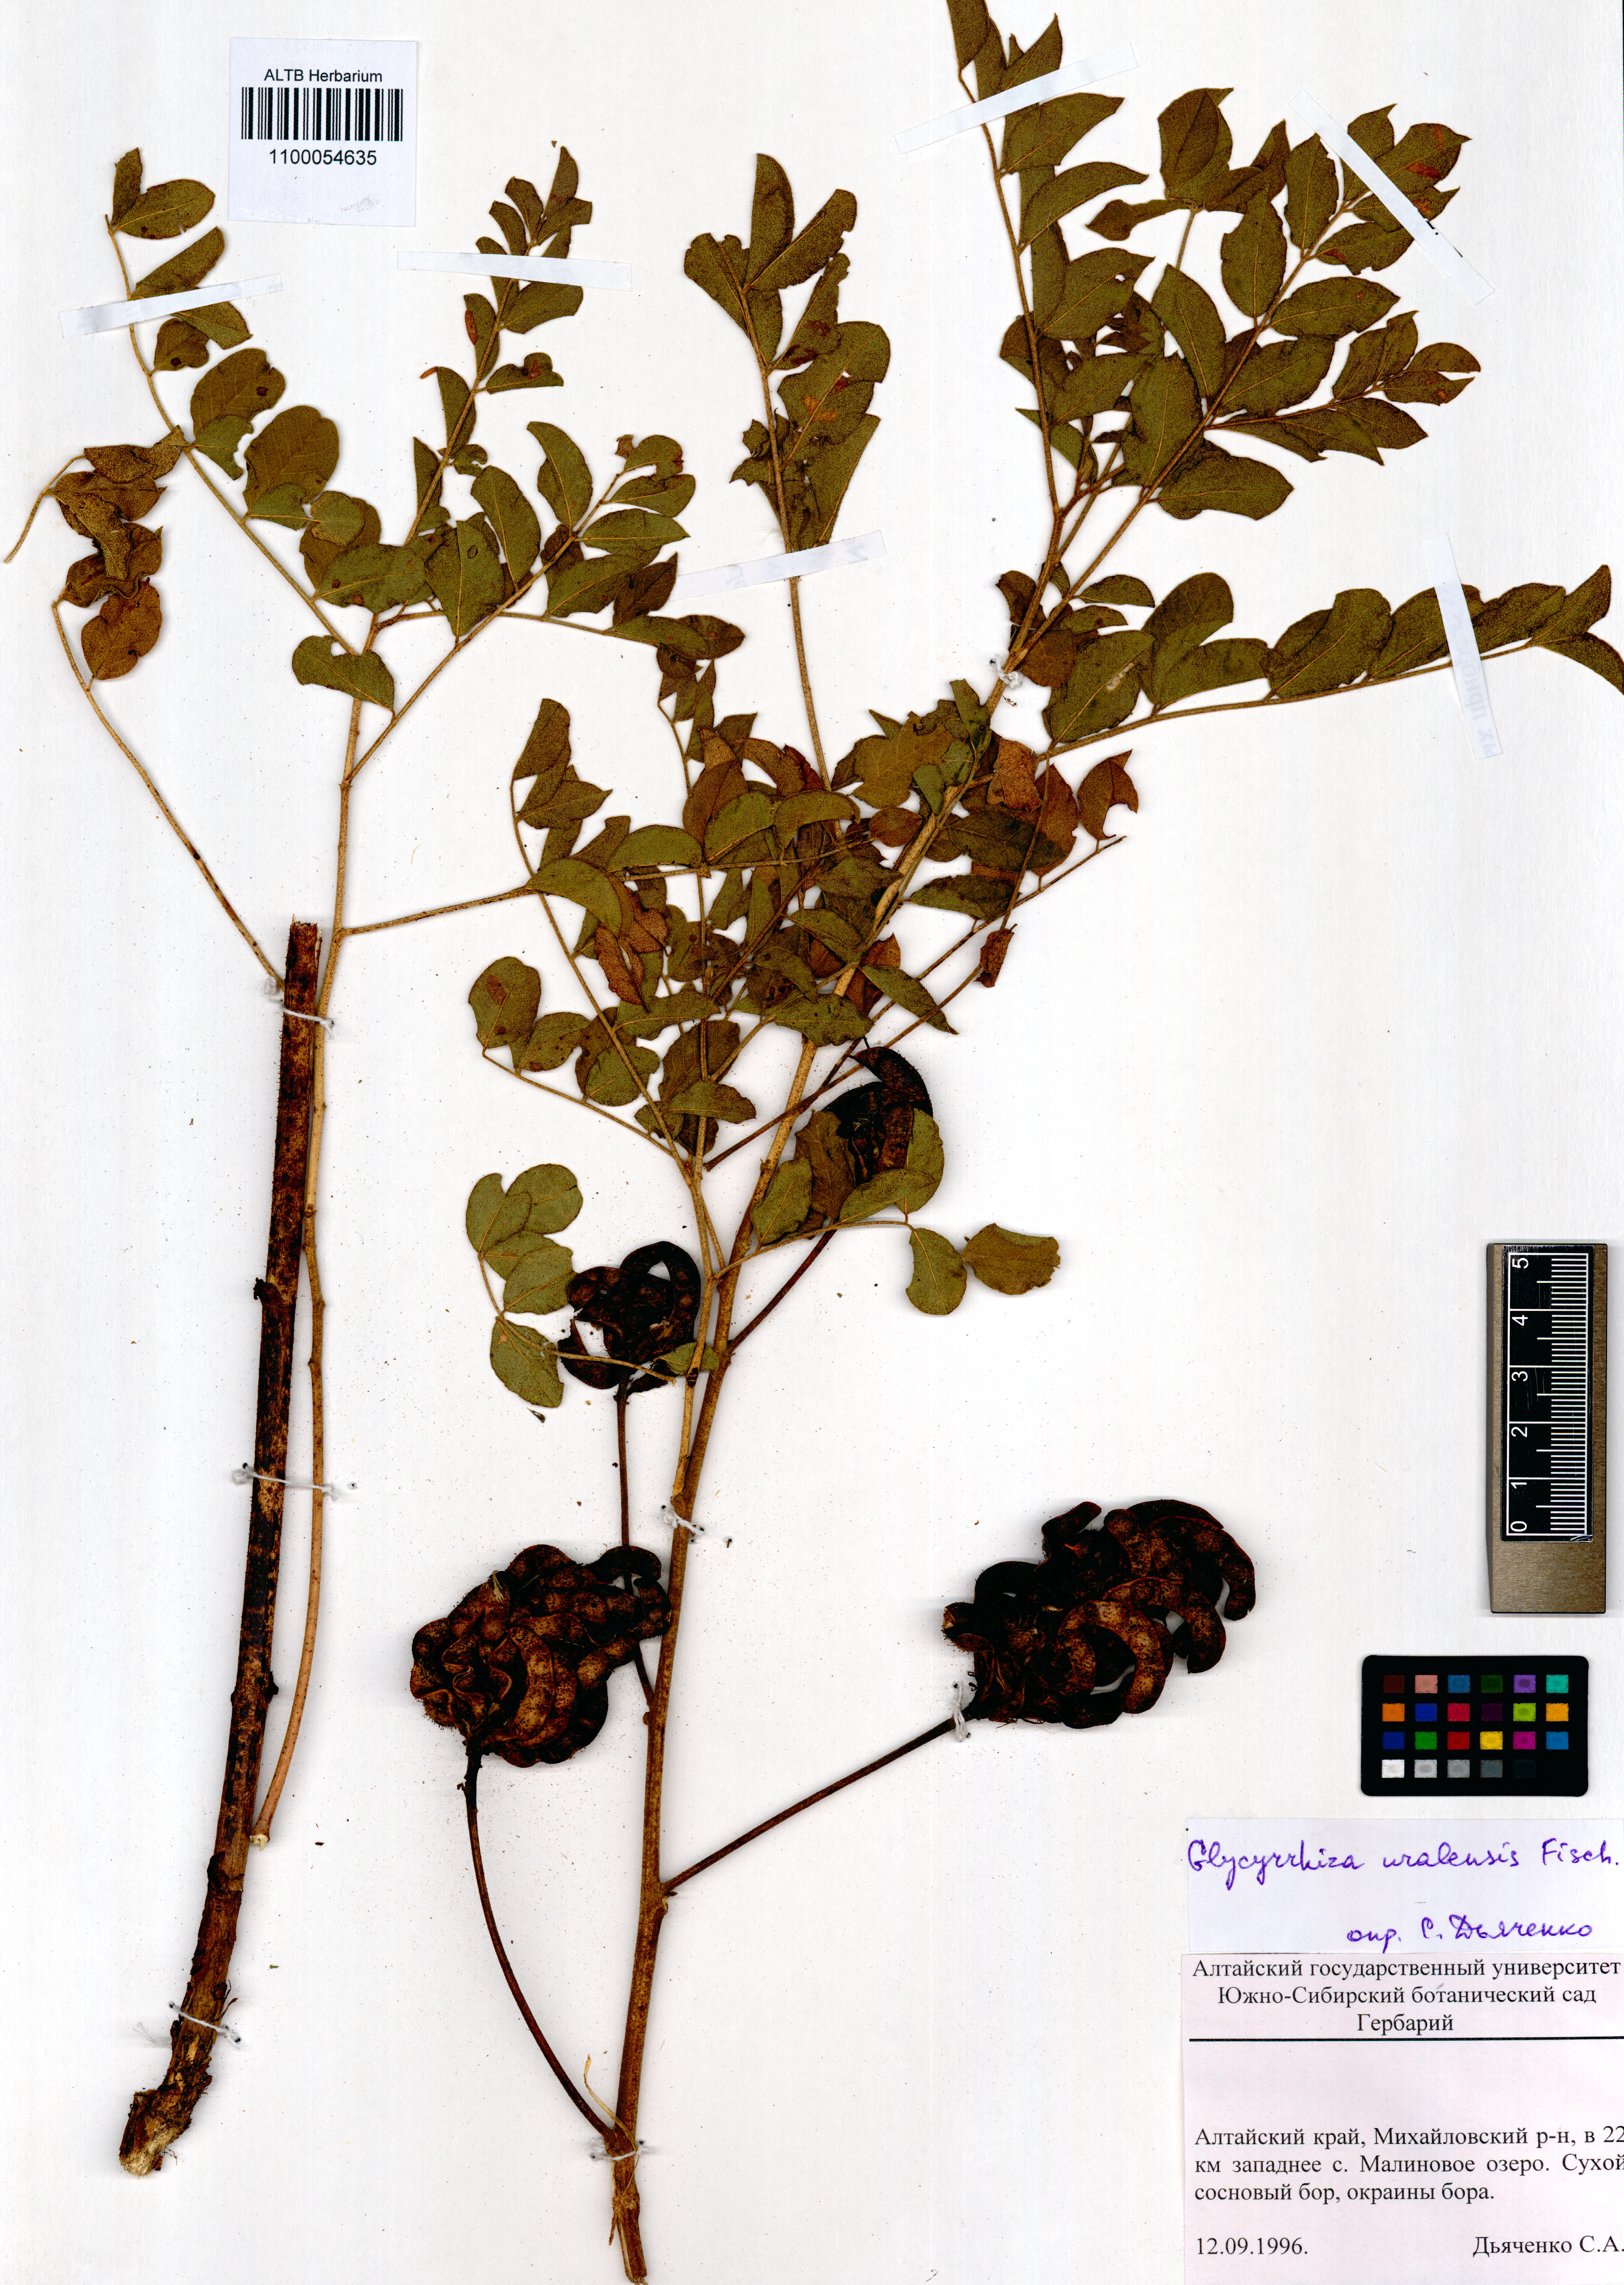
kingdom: Plantae
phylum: Tracheophyta
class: Magnoliopsida
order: Fabales
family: Fabaceae
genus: Glycyrrhiza
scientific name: Glycyrrhiza uralensis
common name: Chinese licorice
